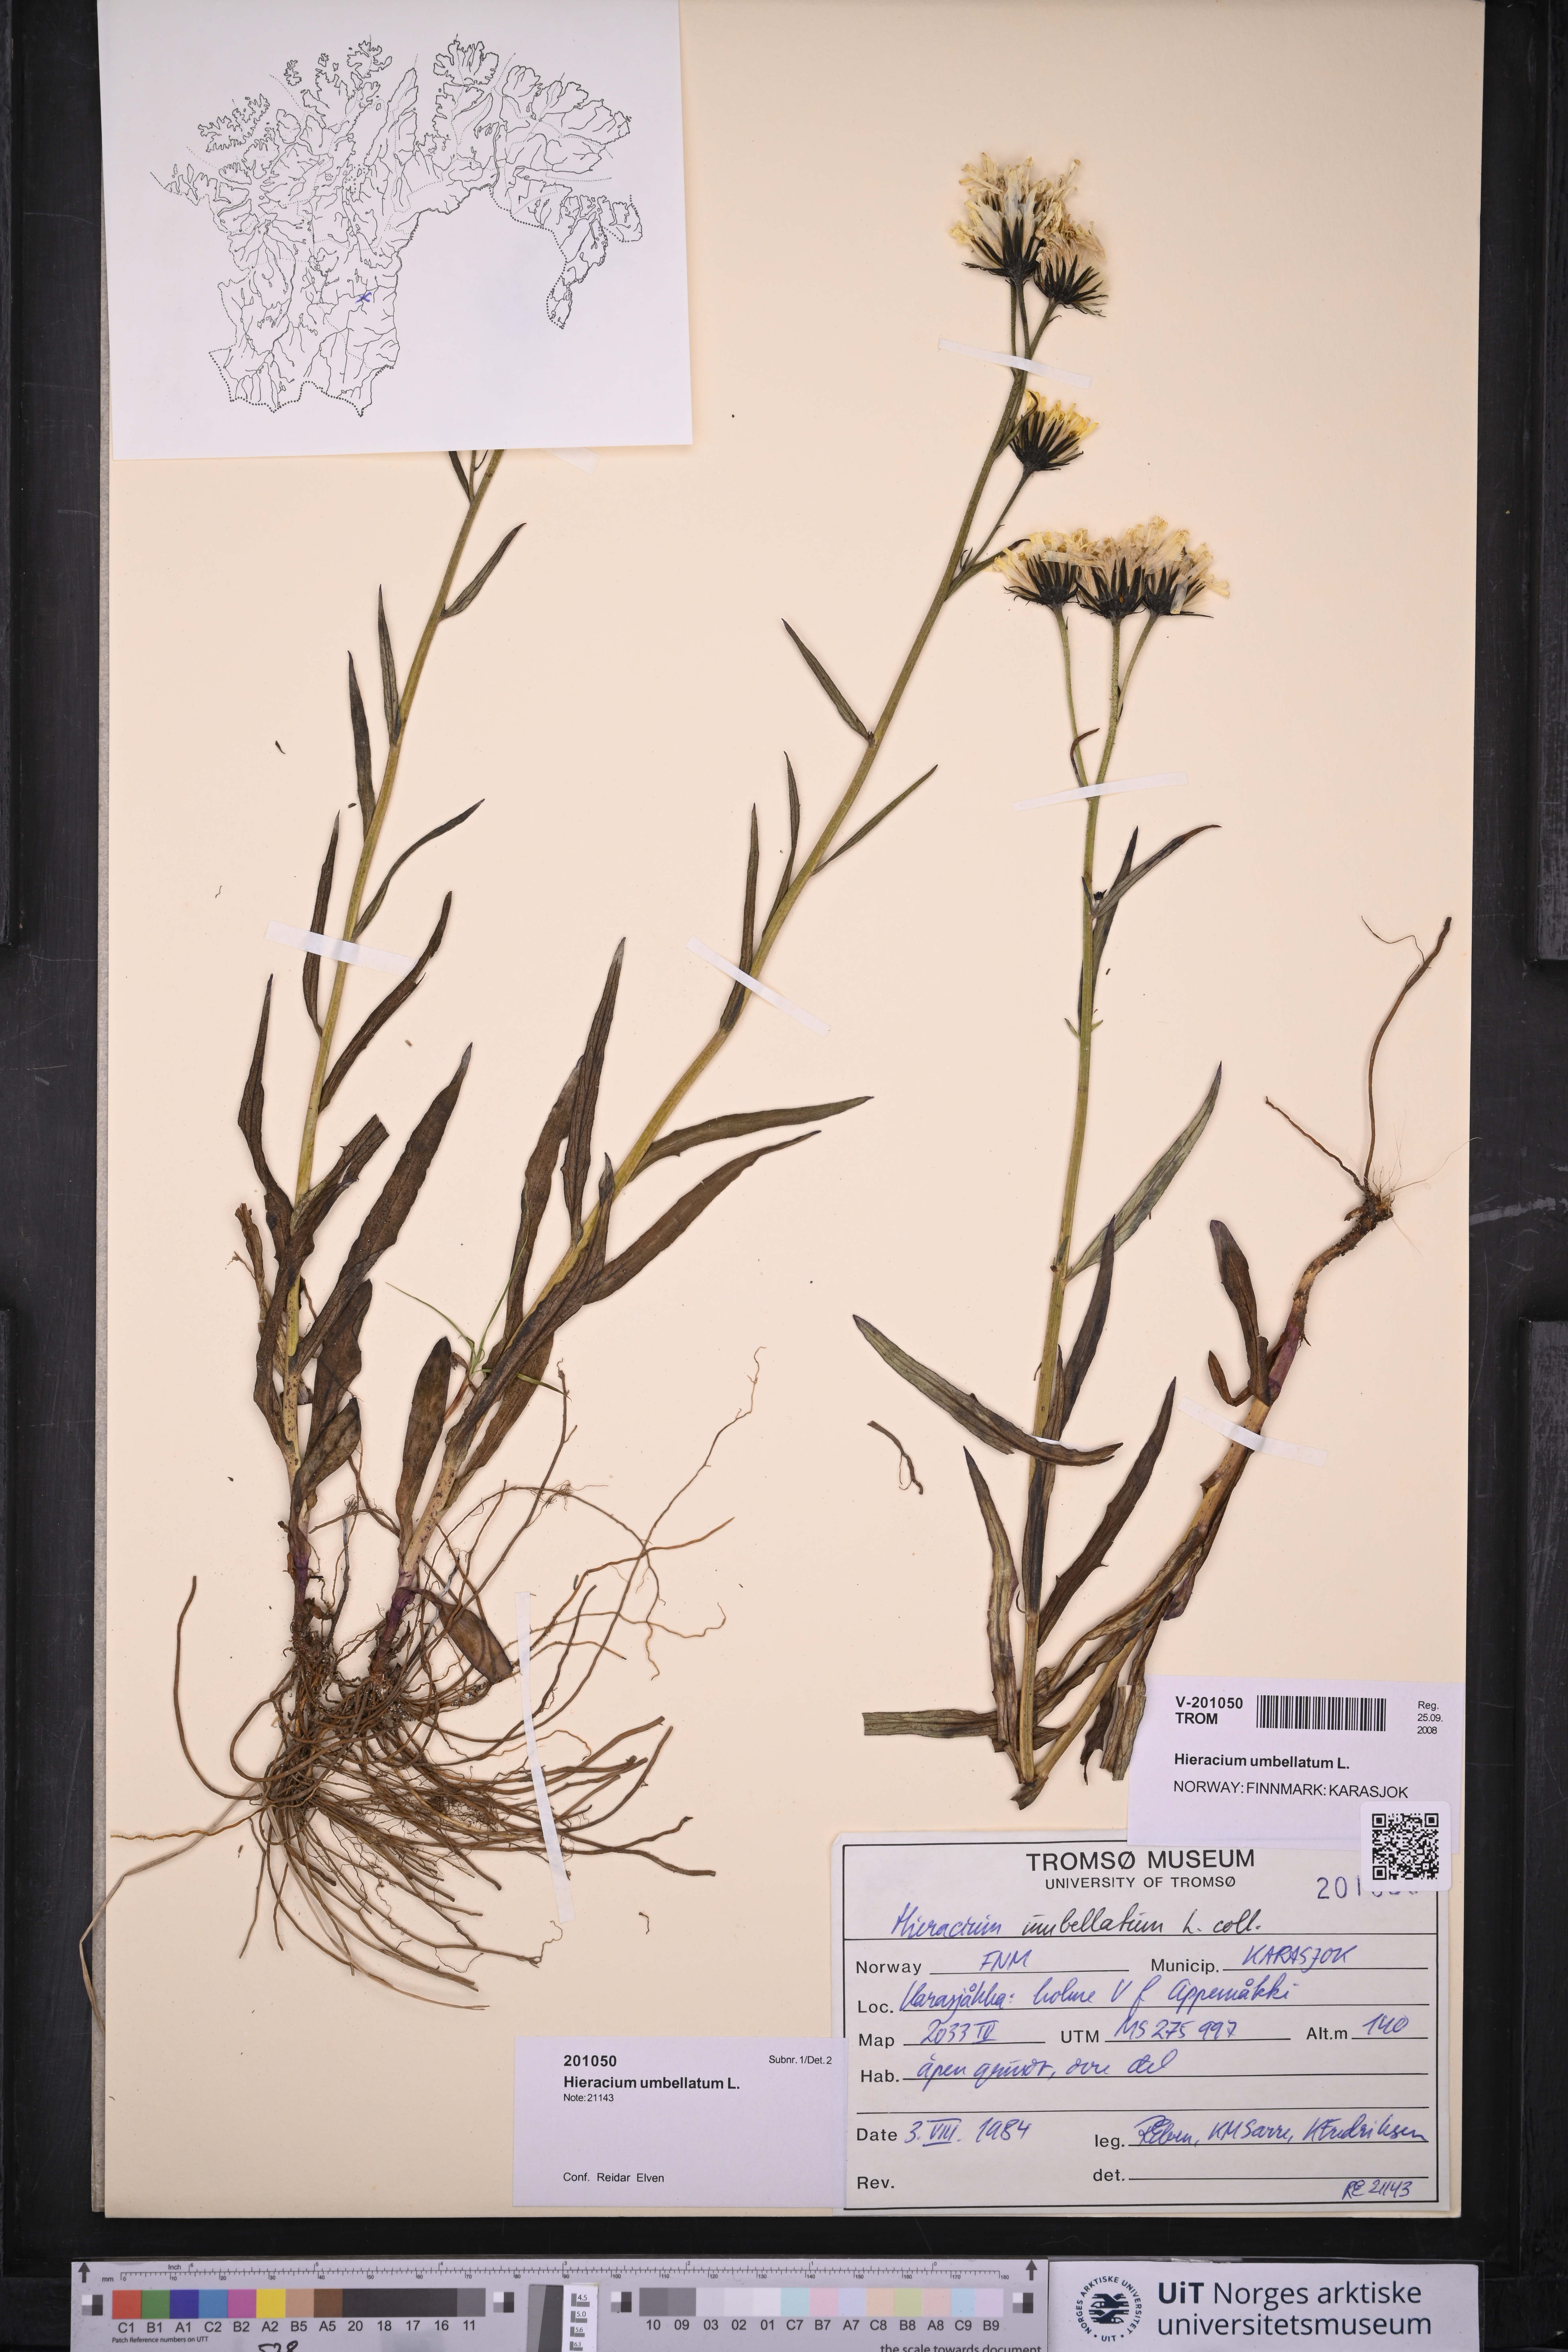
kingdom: Plantae
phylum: Tracheophyta
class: Magnoliopsida
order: Asterales
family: Asteraceae
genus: Hieracium
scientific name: Hieracium umbellatum
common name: Northern hawkweed
